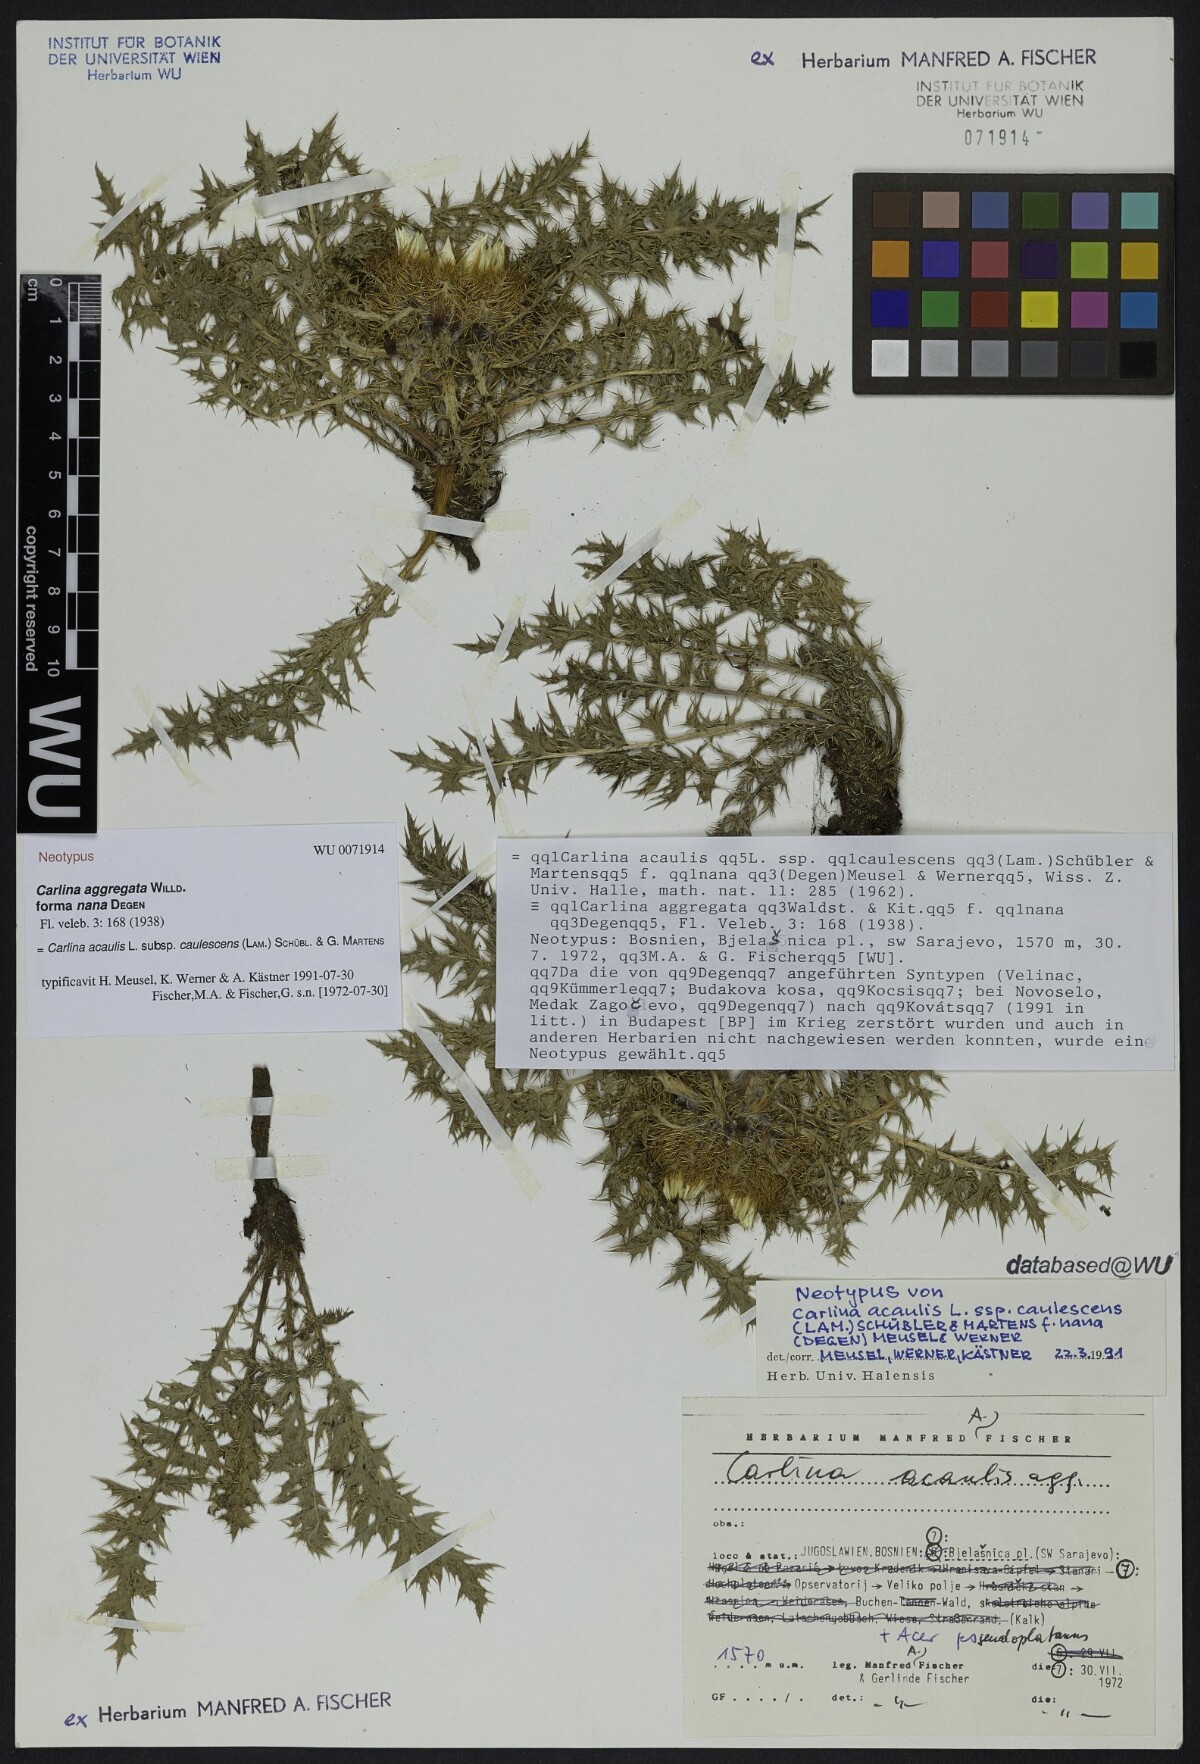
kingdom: Plantae
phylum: Tracheophyta
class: Magnoliopsida
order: Asterales
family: Asteraceae
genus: Carlina
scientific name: Carlina acaulis
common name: Stemless carline thistle
